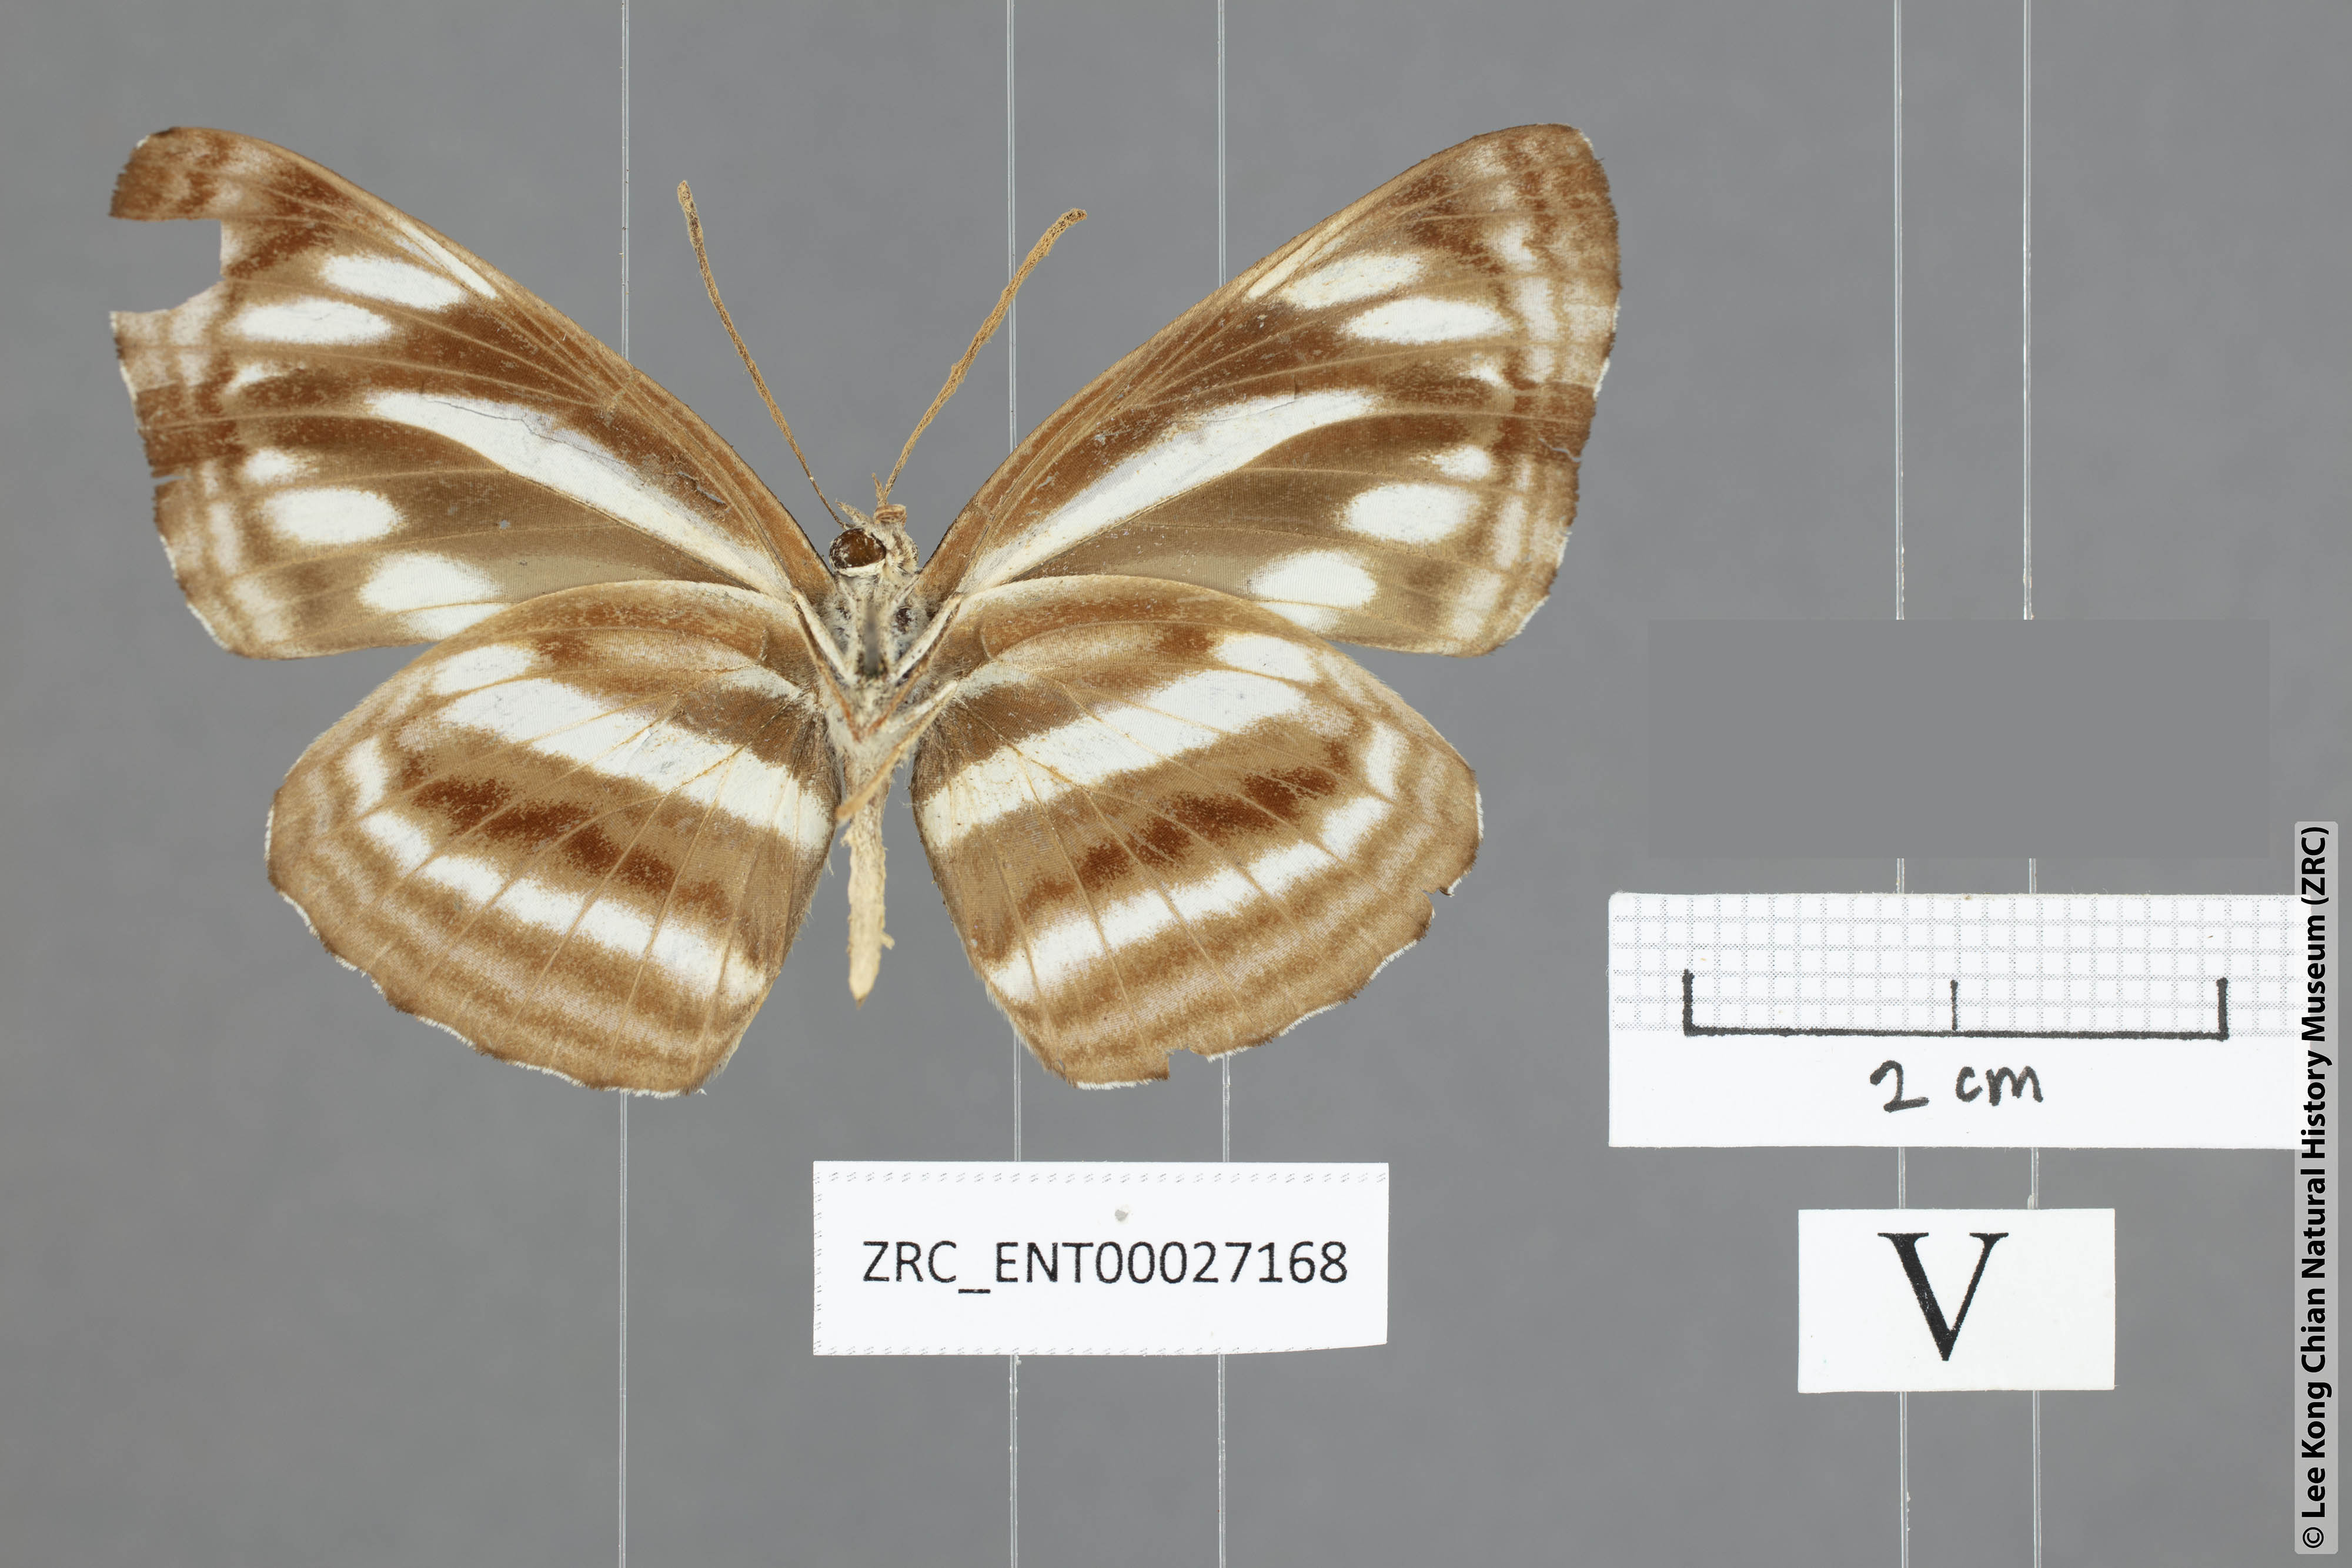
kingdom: Animalia
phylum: Arthropoda
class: Insecta
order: Lepidoptera
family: Nymphalidae
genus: Neptis
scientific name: Neptis sankara
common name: Broad-banded sailer
